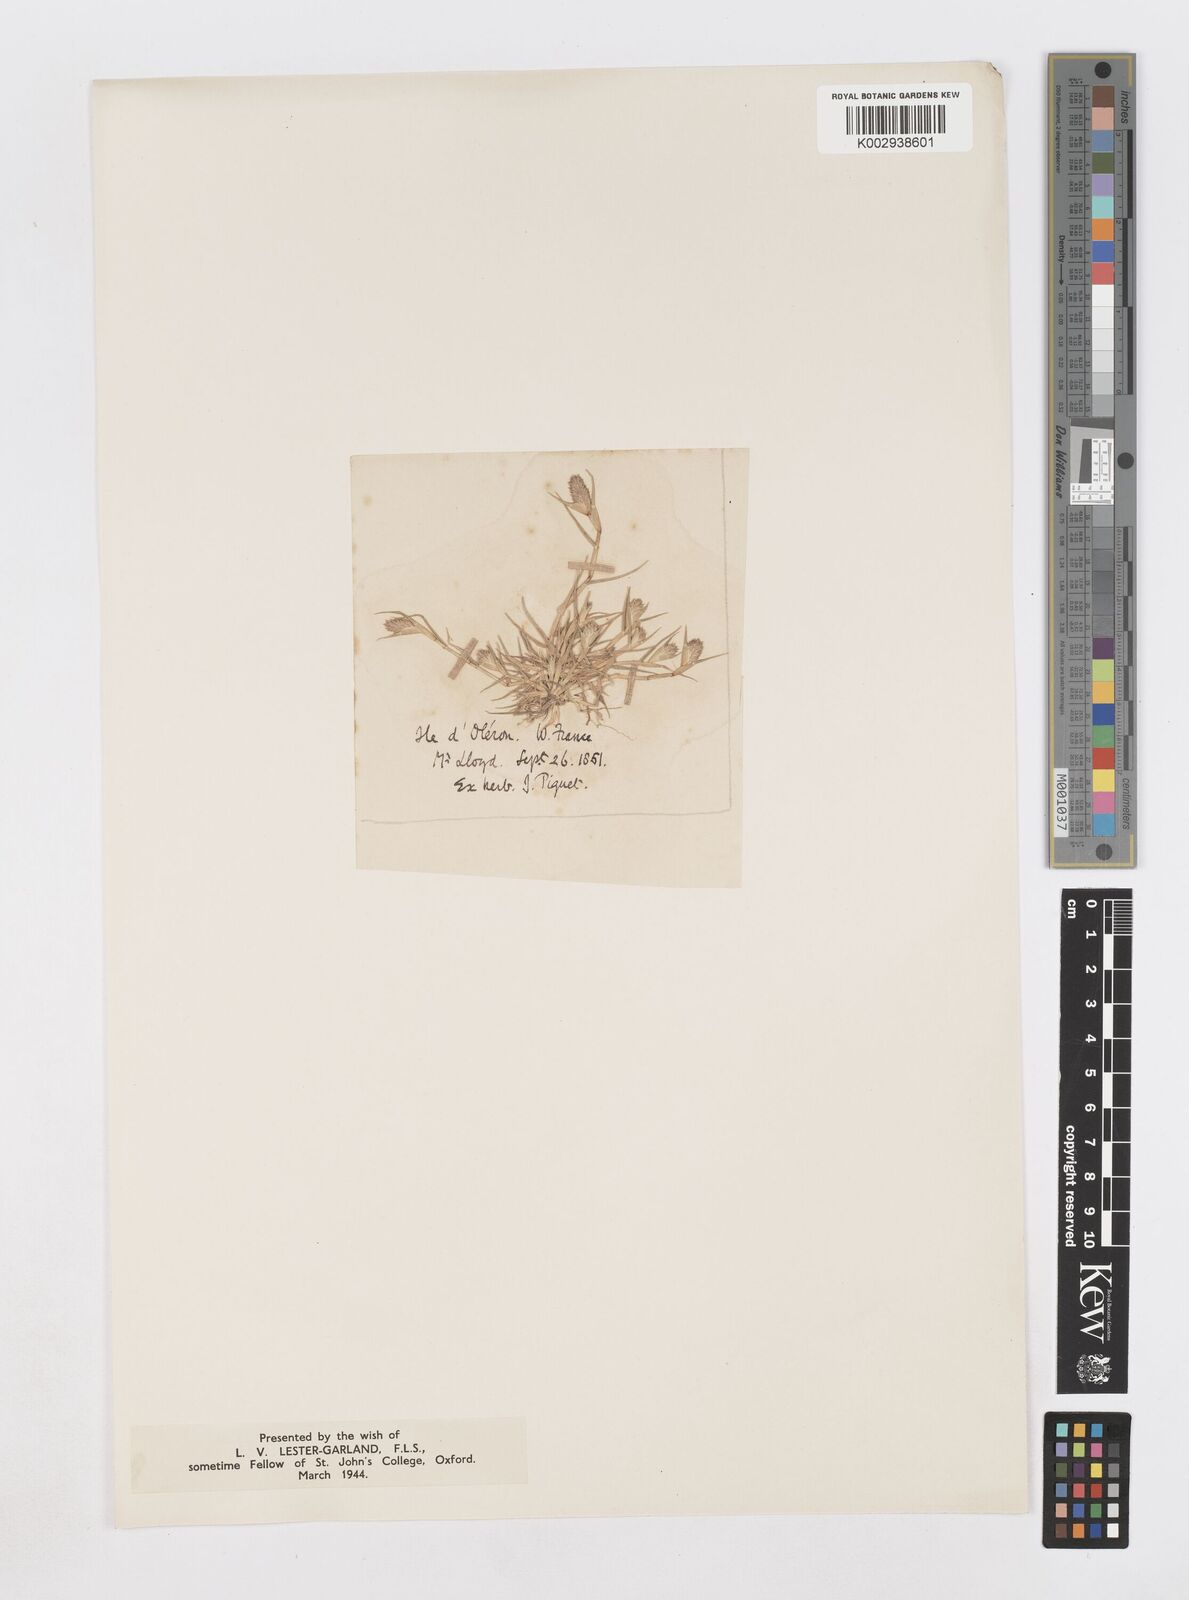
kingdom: Plantae
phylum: Tracheophyta
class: Liliopsida
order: Poales
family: Poaceae
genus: Sporobolus
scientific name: Sporobolus schoenoides
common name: Rush-like timothy
